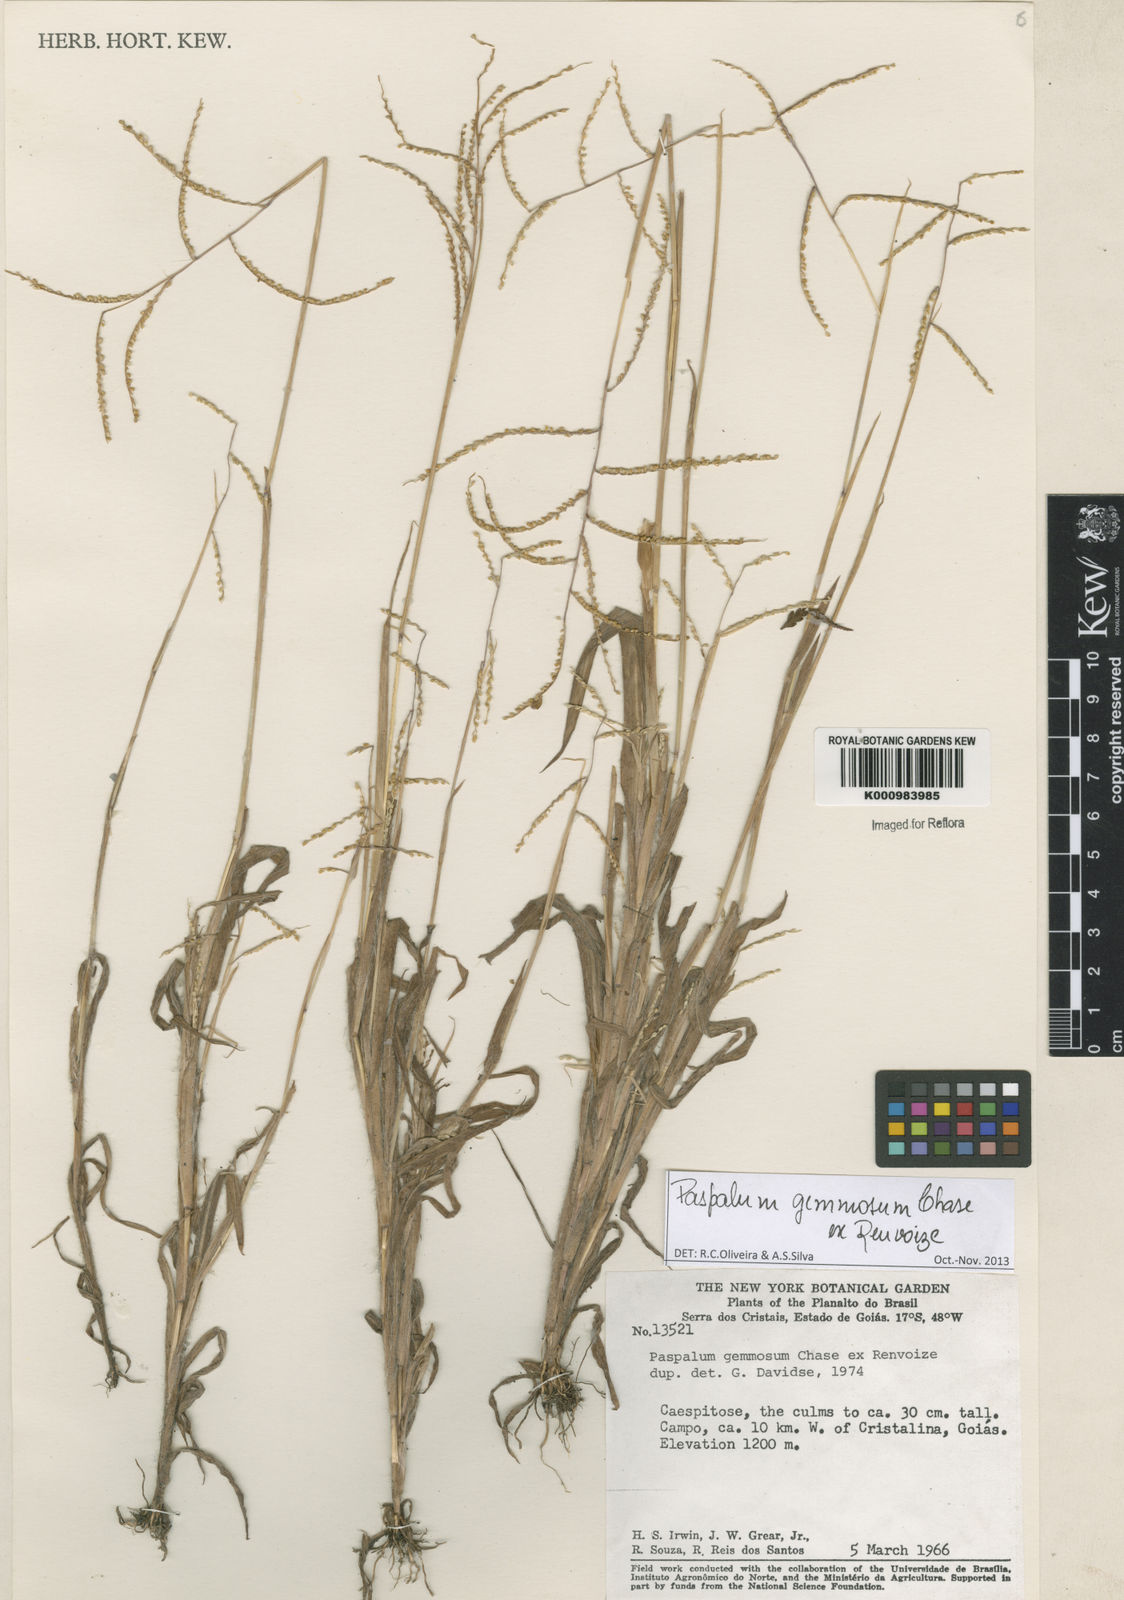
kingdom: Plantae
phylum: Tracheophyta
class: Liliopsida
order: Poales
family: Poaceae
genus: Paspalum
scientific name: Paspalum subsesquiglume
